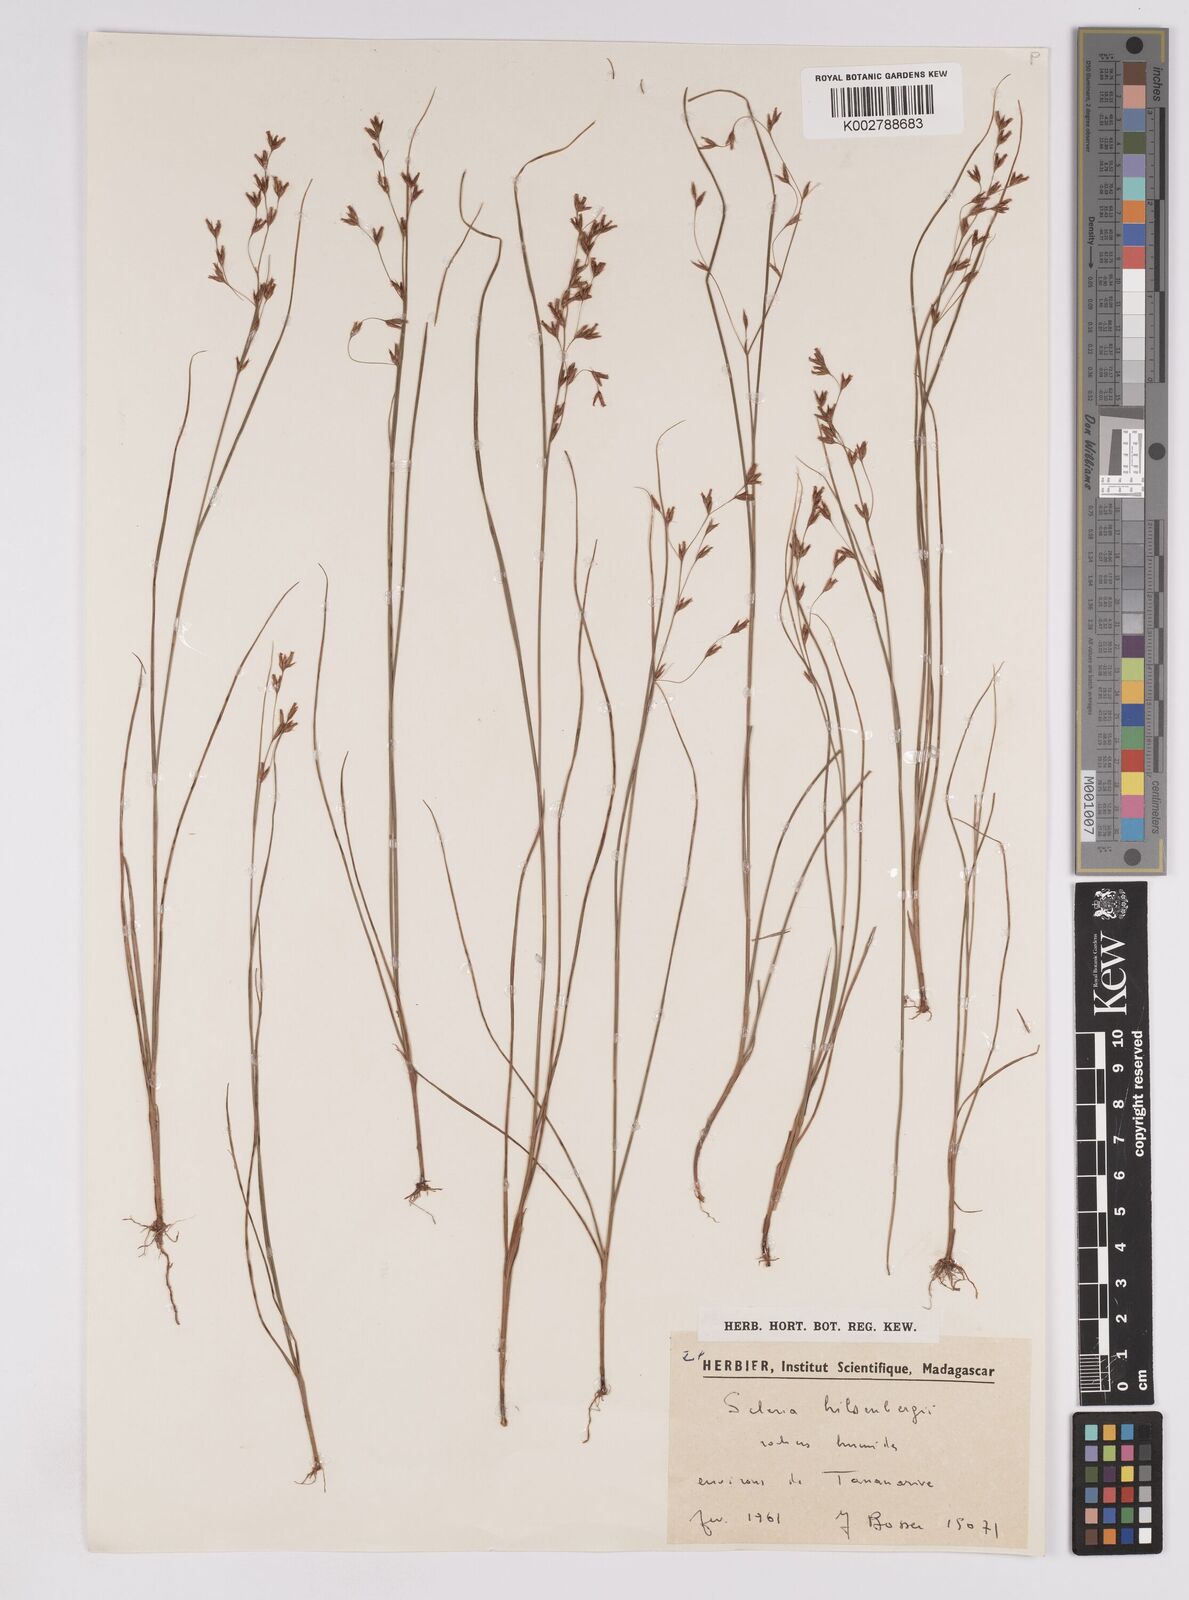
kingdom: Plantae
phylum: Tracheophyta
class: Liliopsida
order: Poales
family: Cyperaceae
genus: Scleria
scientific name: Scleria
